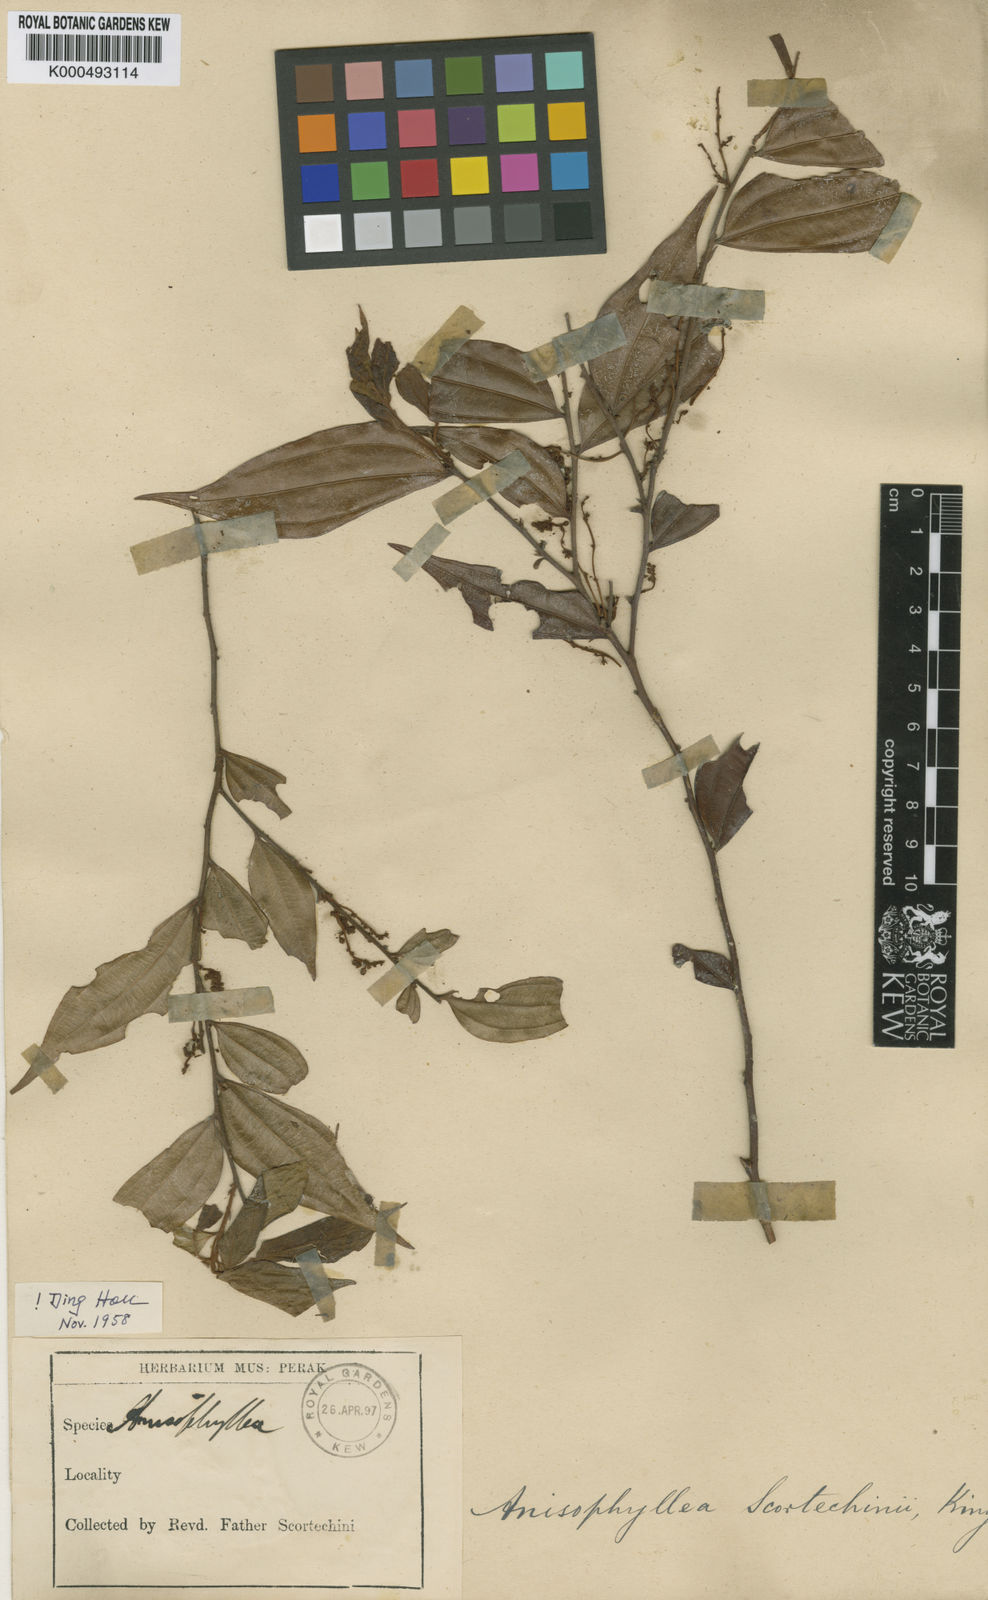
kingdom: Plantae
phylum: Tracheophyta
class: Magnoliopsida
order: Cucurbitales
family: Anisophylleaceae
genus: Anisophyllea
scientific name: Anisophyllea scortechinii
